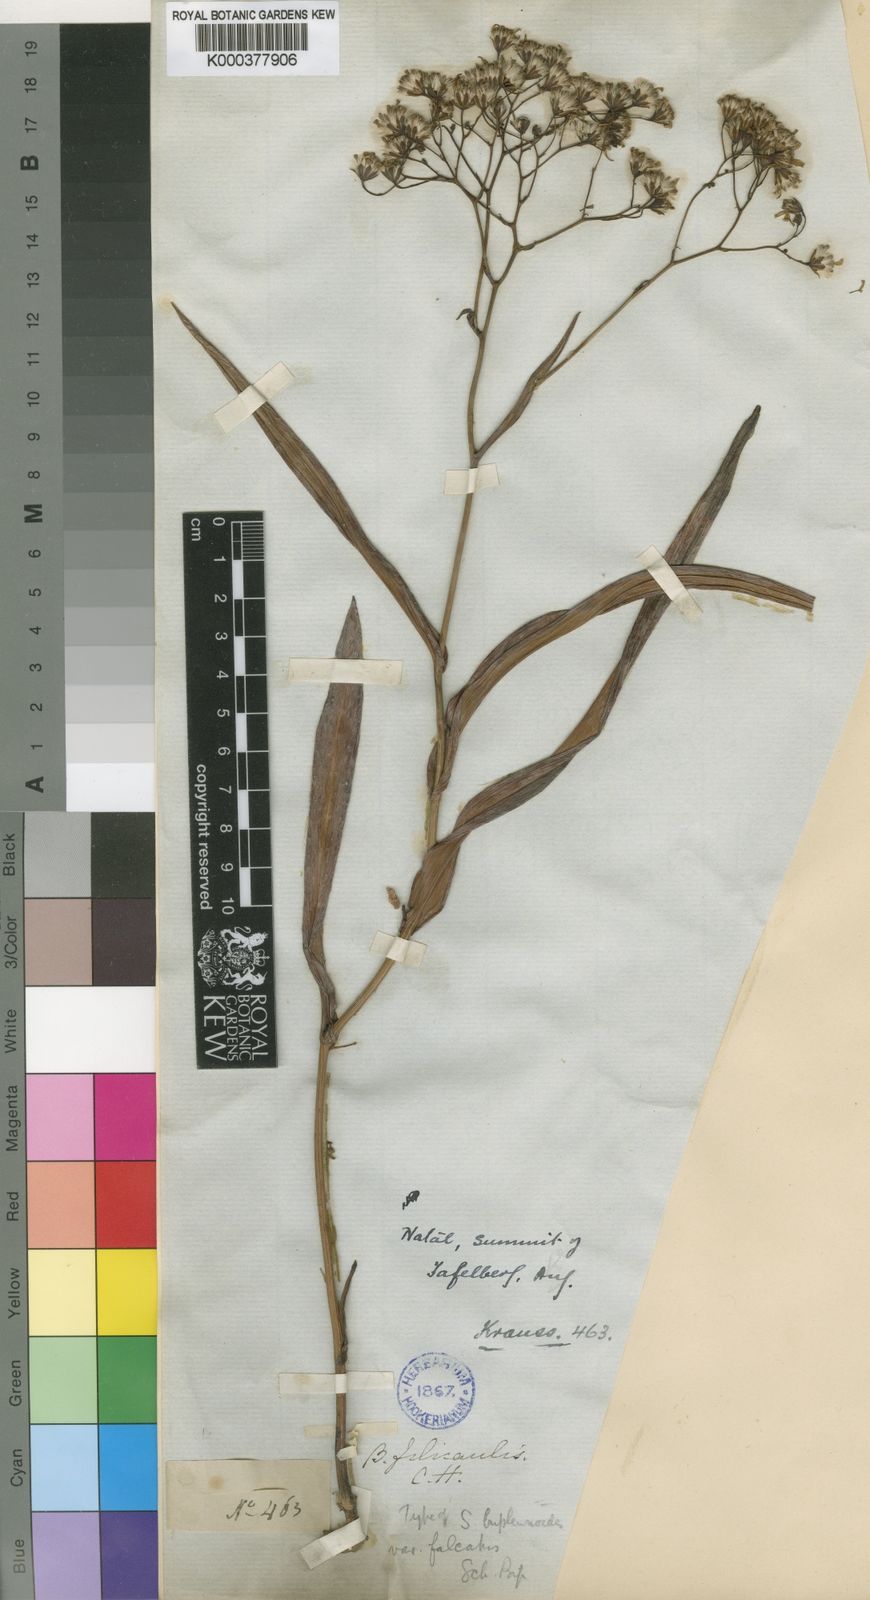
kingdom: Plantae
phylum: Tracheophyta
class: Magnoliopsida
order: Asterales
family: Asteraceae
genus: Senecio
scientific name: Senecio bupleuroides
